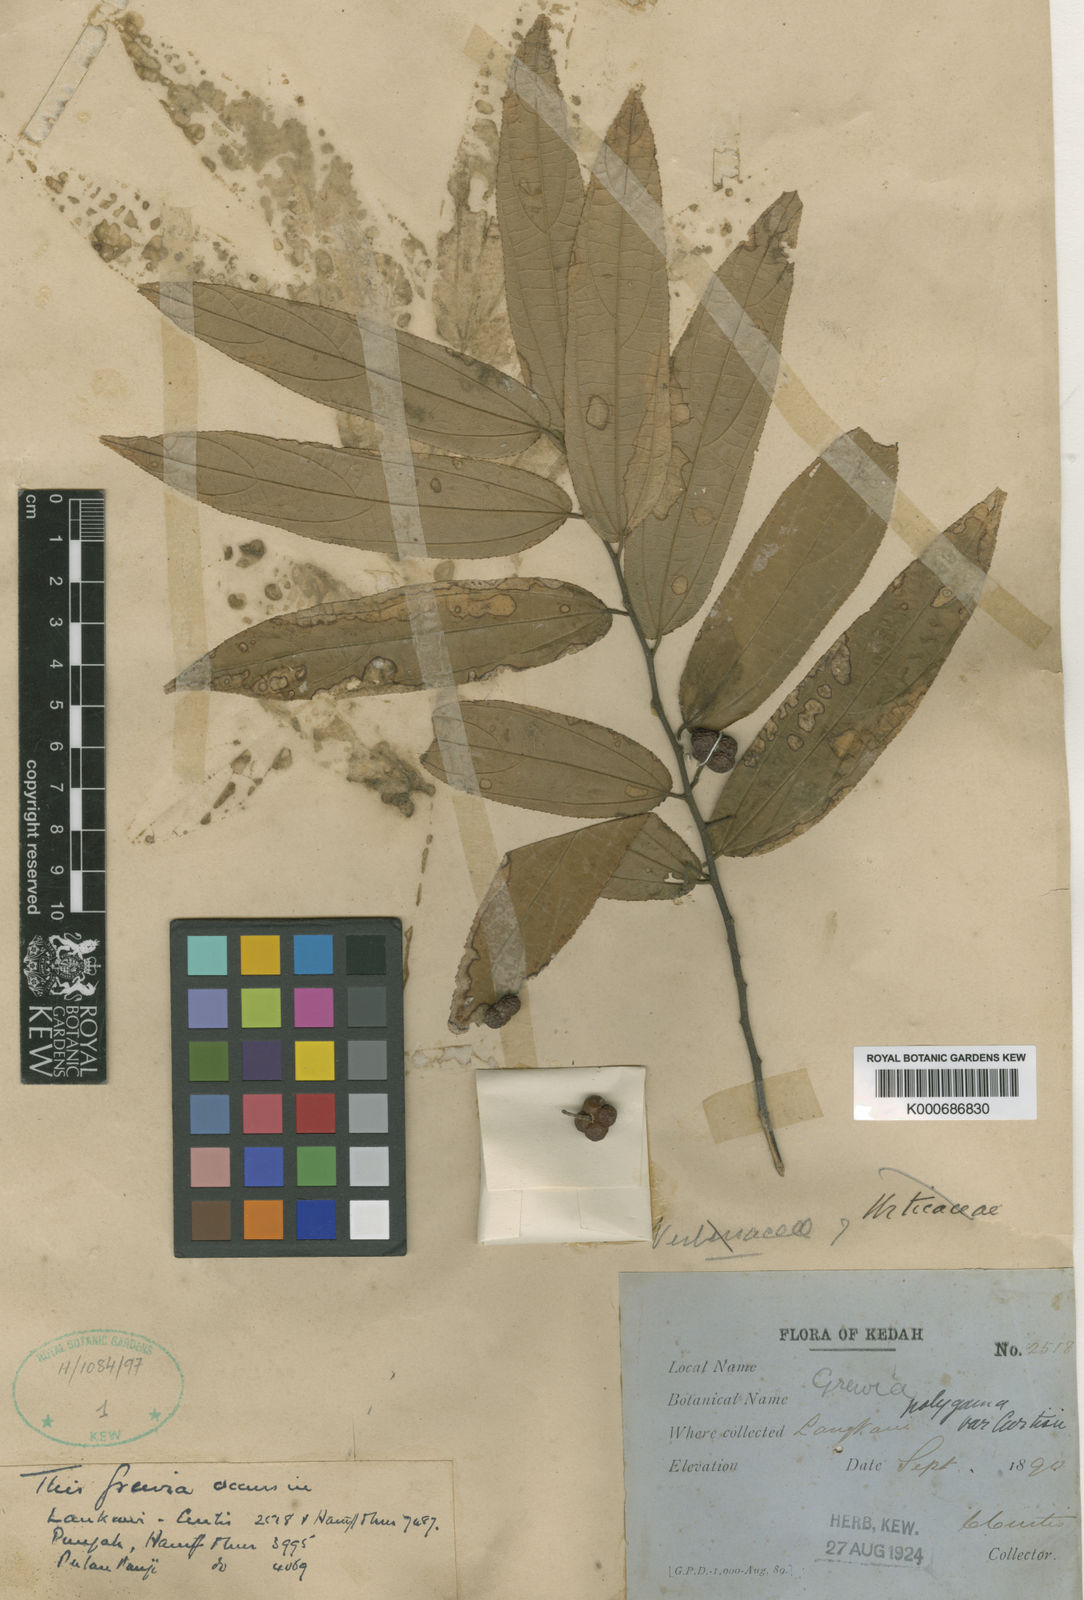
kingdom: Plantae
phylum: Tracheophyta
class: Magnoliopsida
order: Malvales
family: Malvaceae
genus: Grewia
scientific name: Grewia excelsa
